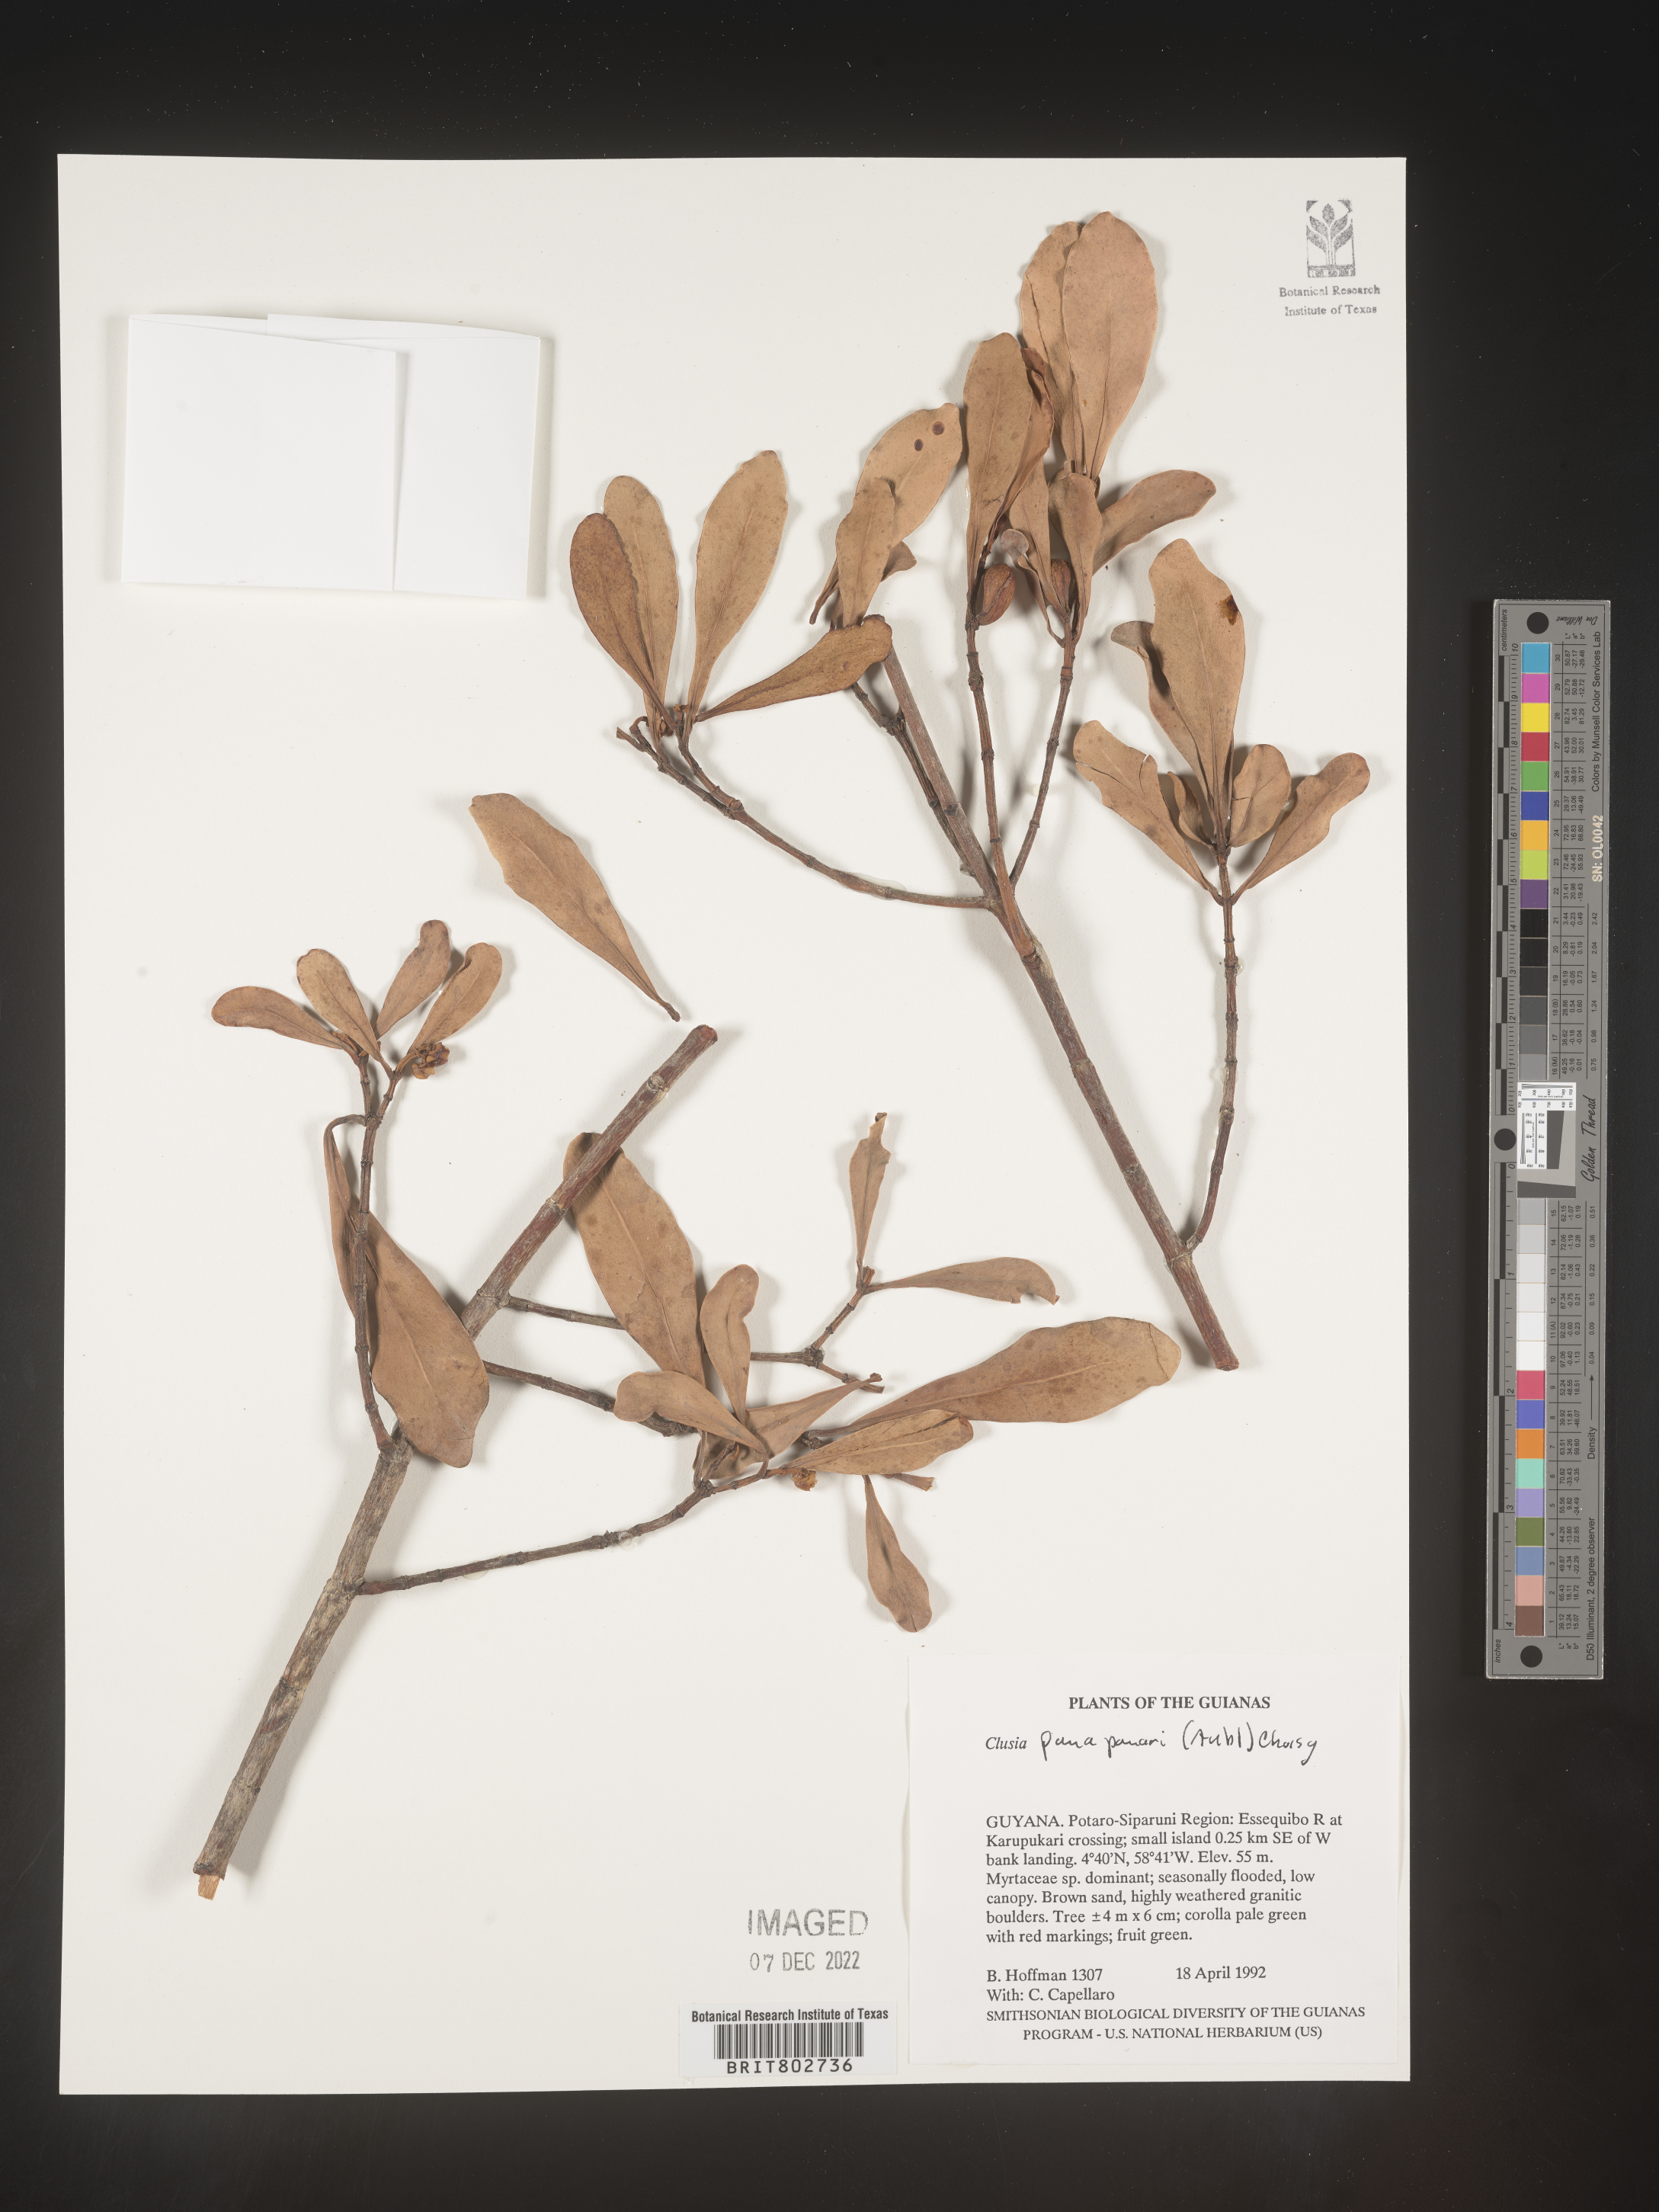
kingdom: Plantae
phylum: Tracheophyta
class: Magnoliopsida
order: Malpighiales
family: Clusiaceae
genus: Clusia
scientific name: Clusia panapanari
